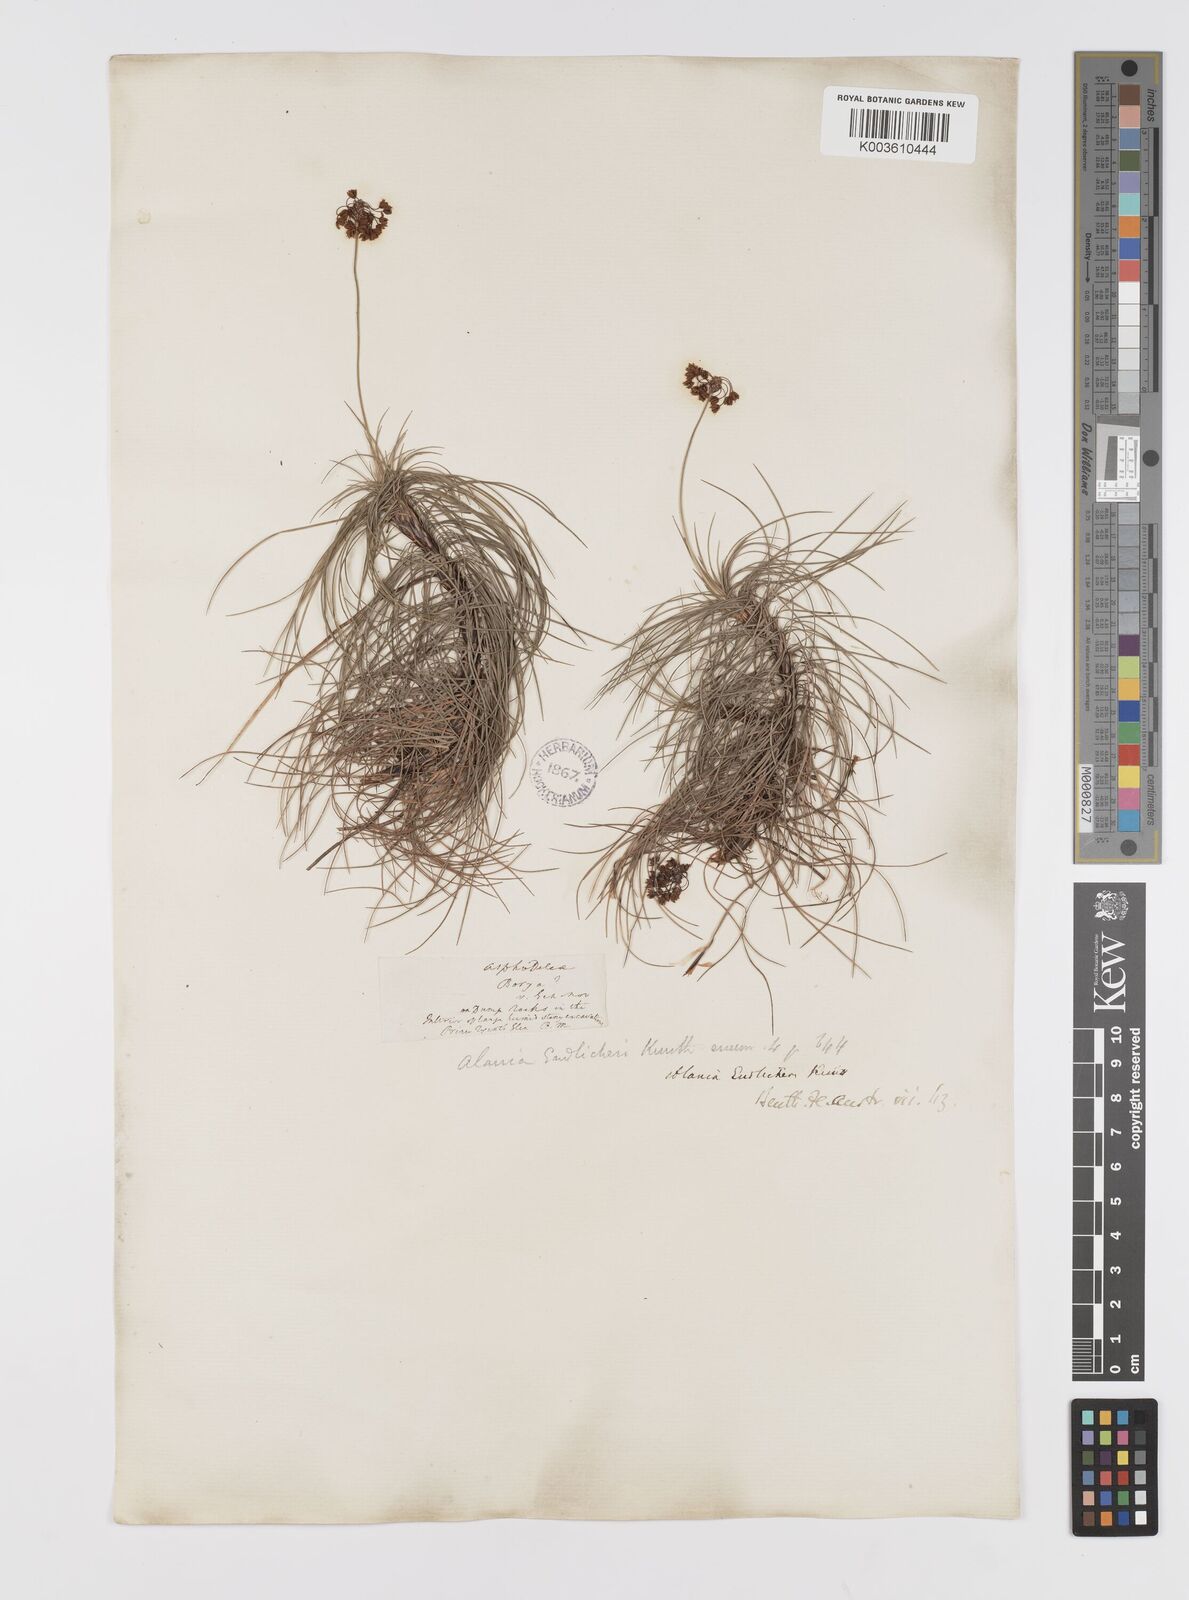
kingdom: Plantae
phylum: Tracheophyta
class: Liliopsida
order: Asparagales
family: Boryaceae
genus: Alania
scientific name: Alania cunninghamii
